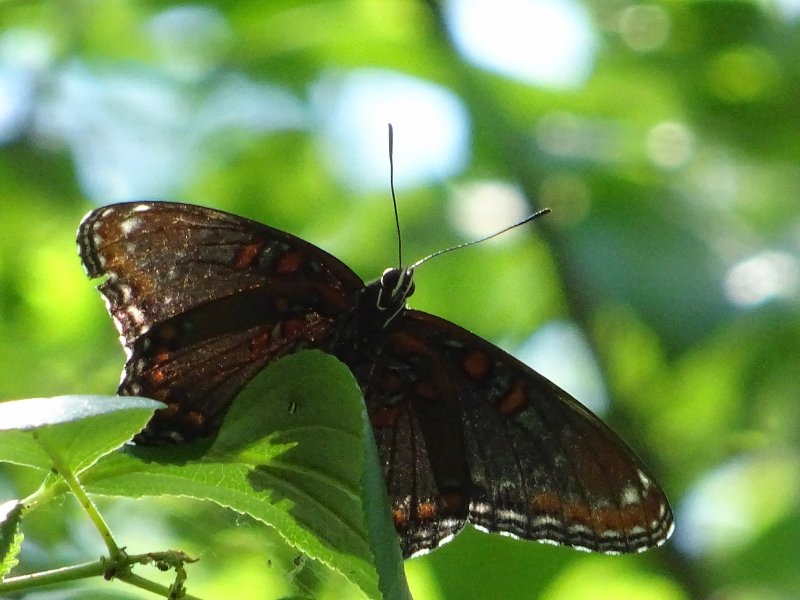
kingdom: Animalia
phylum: Arthropoda
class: Insecta
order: Lepidoptera
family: Nymphalidae
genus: Limenitis
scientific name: Limenitis astyanax
